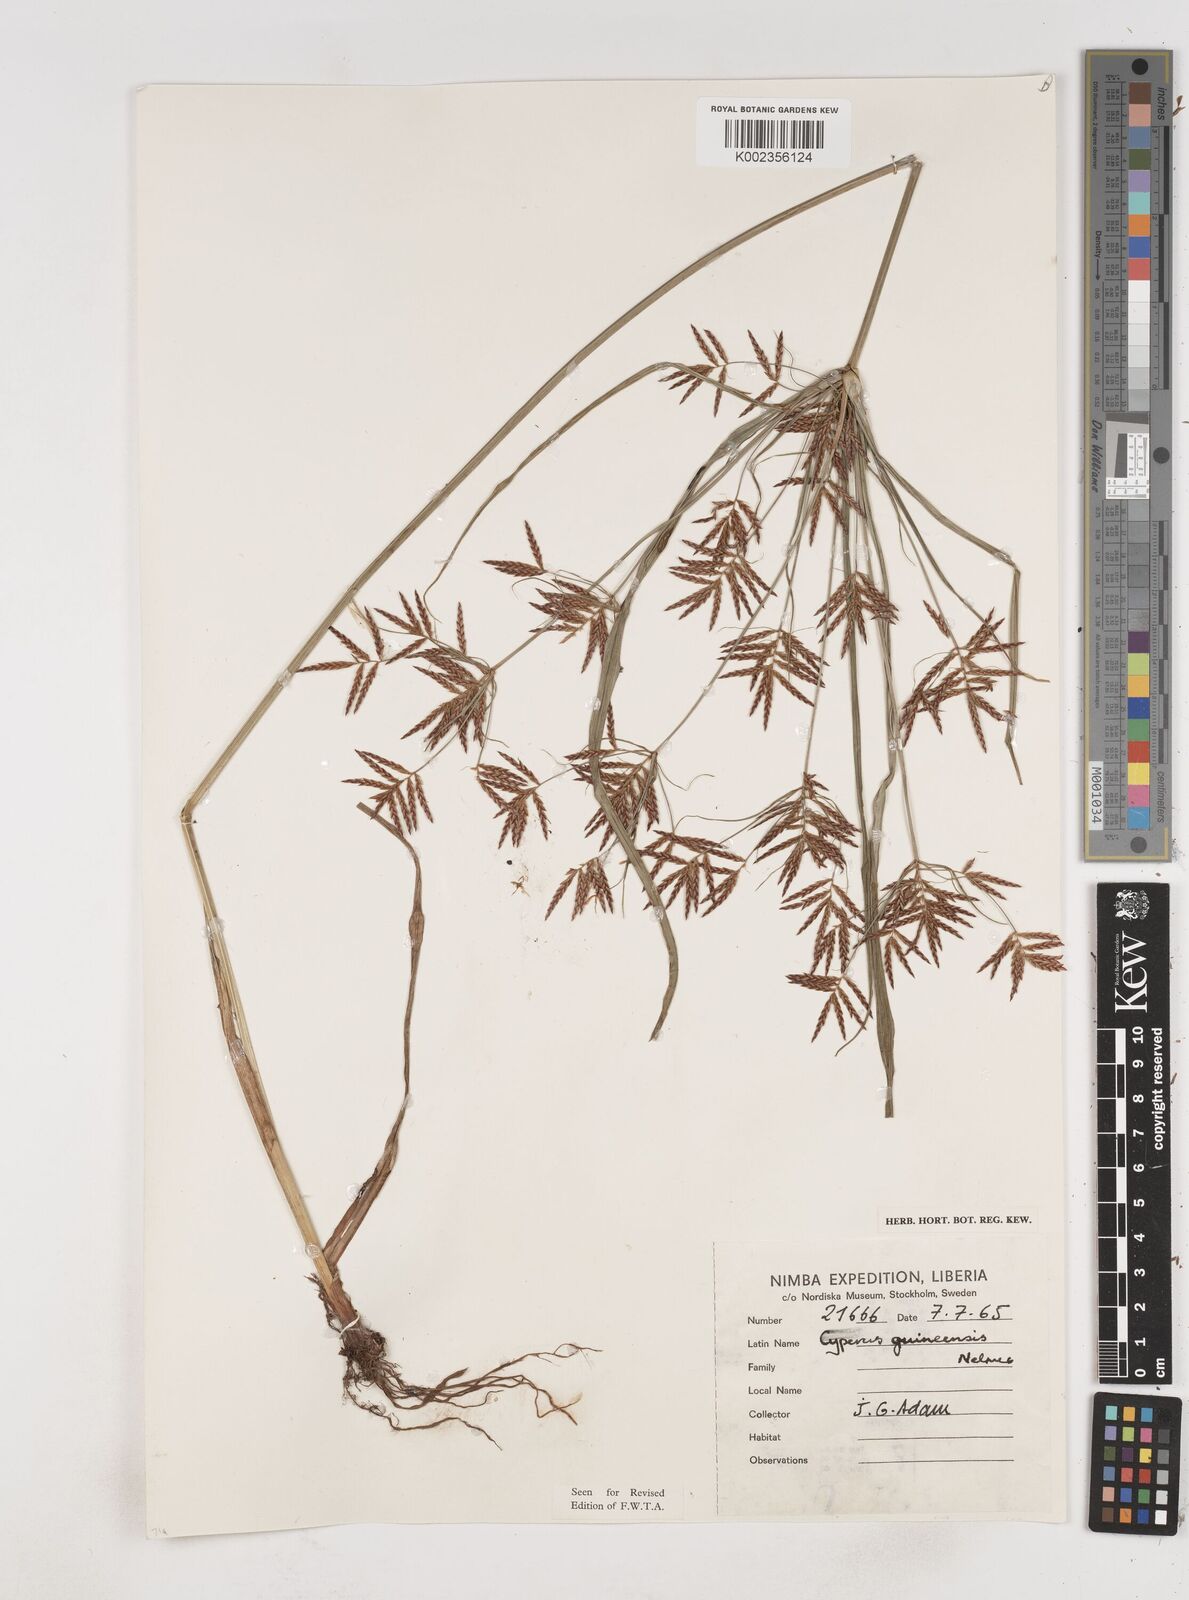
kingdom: Plantae
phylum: Tracheophyta
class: Liliopsida
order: Poales
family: Cyperaceae
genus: Cyperus
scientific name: Cyperus tenuiculmis
